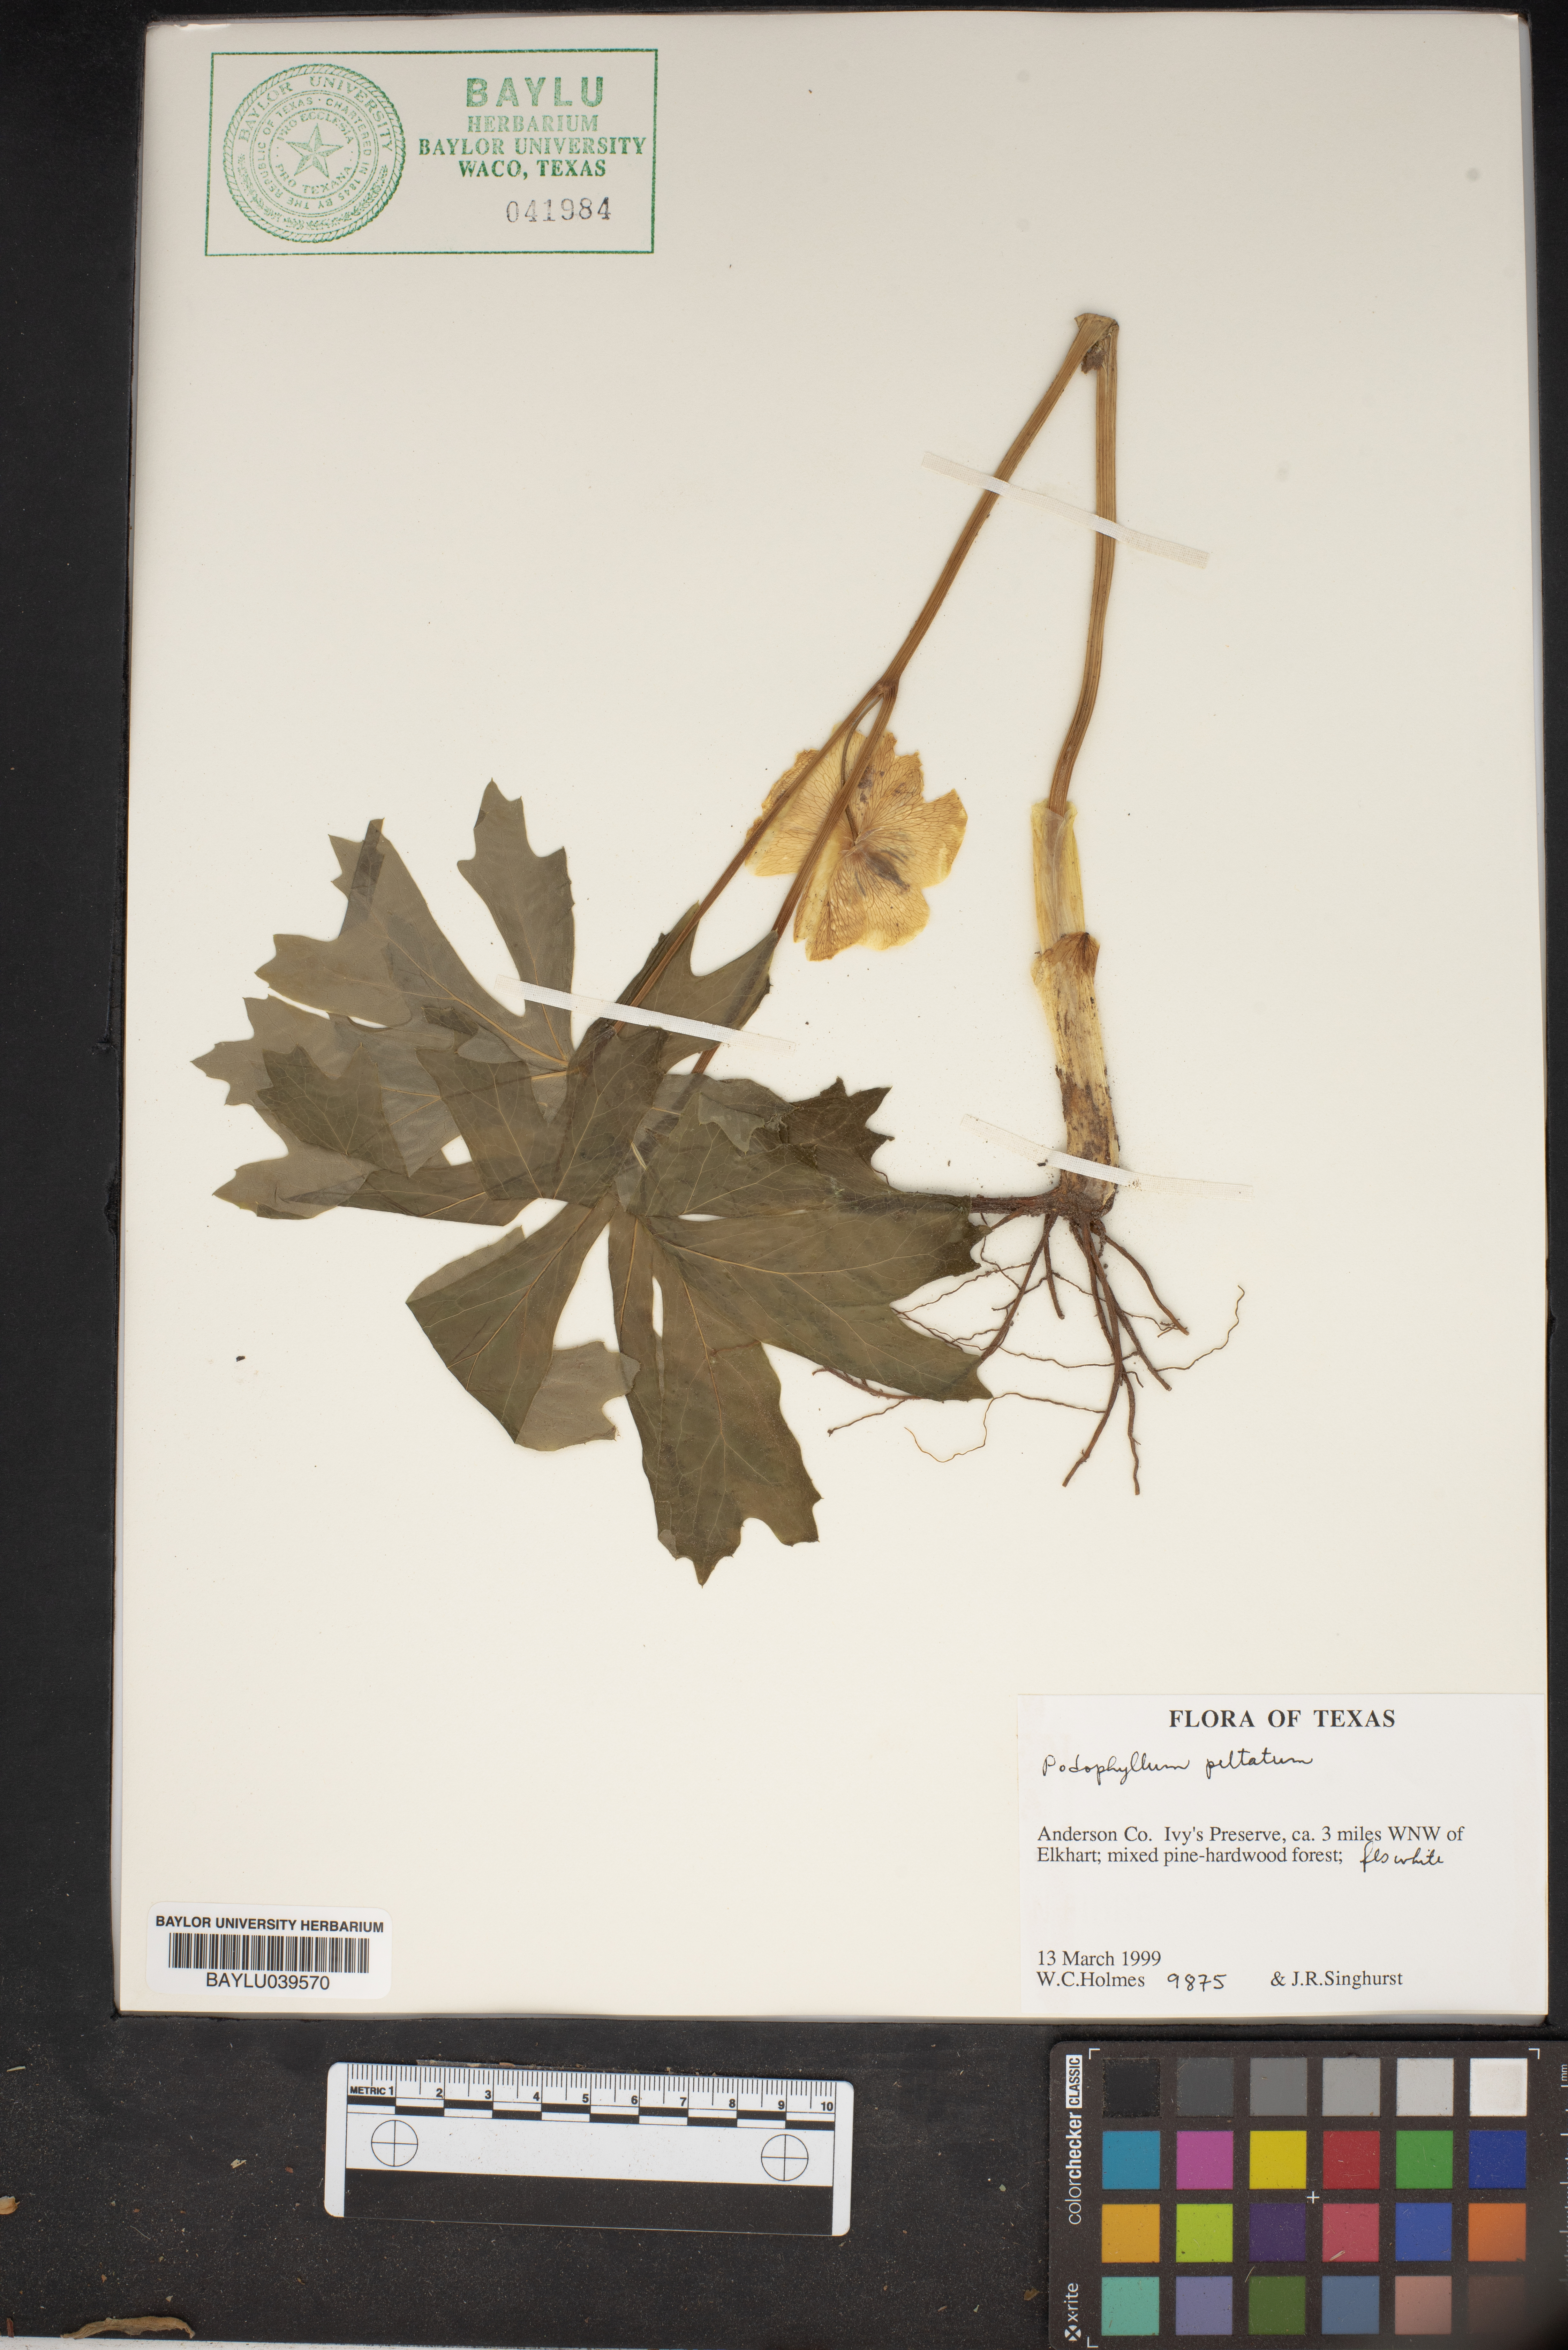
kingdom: Plantae
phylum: Tracheophyta
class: Magnoliopsida
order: Ranunculales
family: Berberidaceae
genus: Podophyllum
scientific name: Podophyllum peltatum
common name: Wild mandrake
